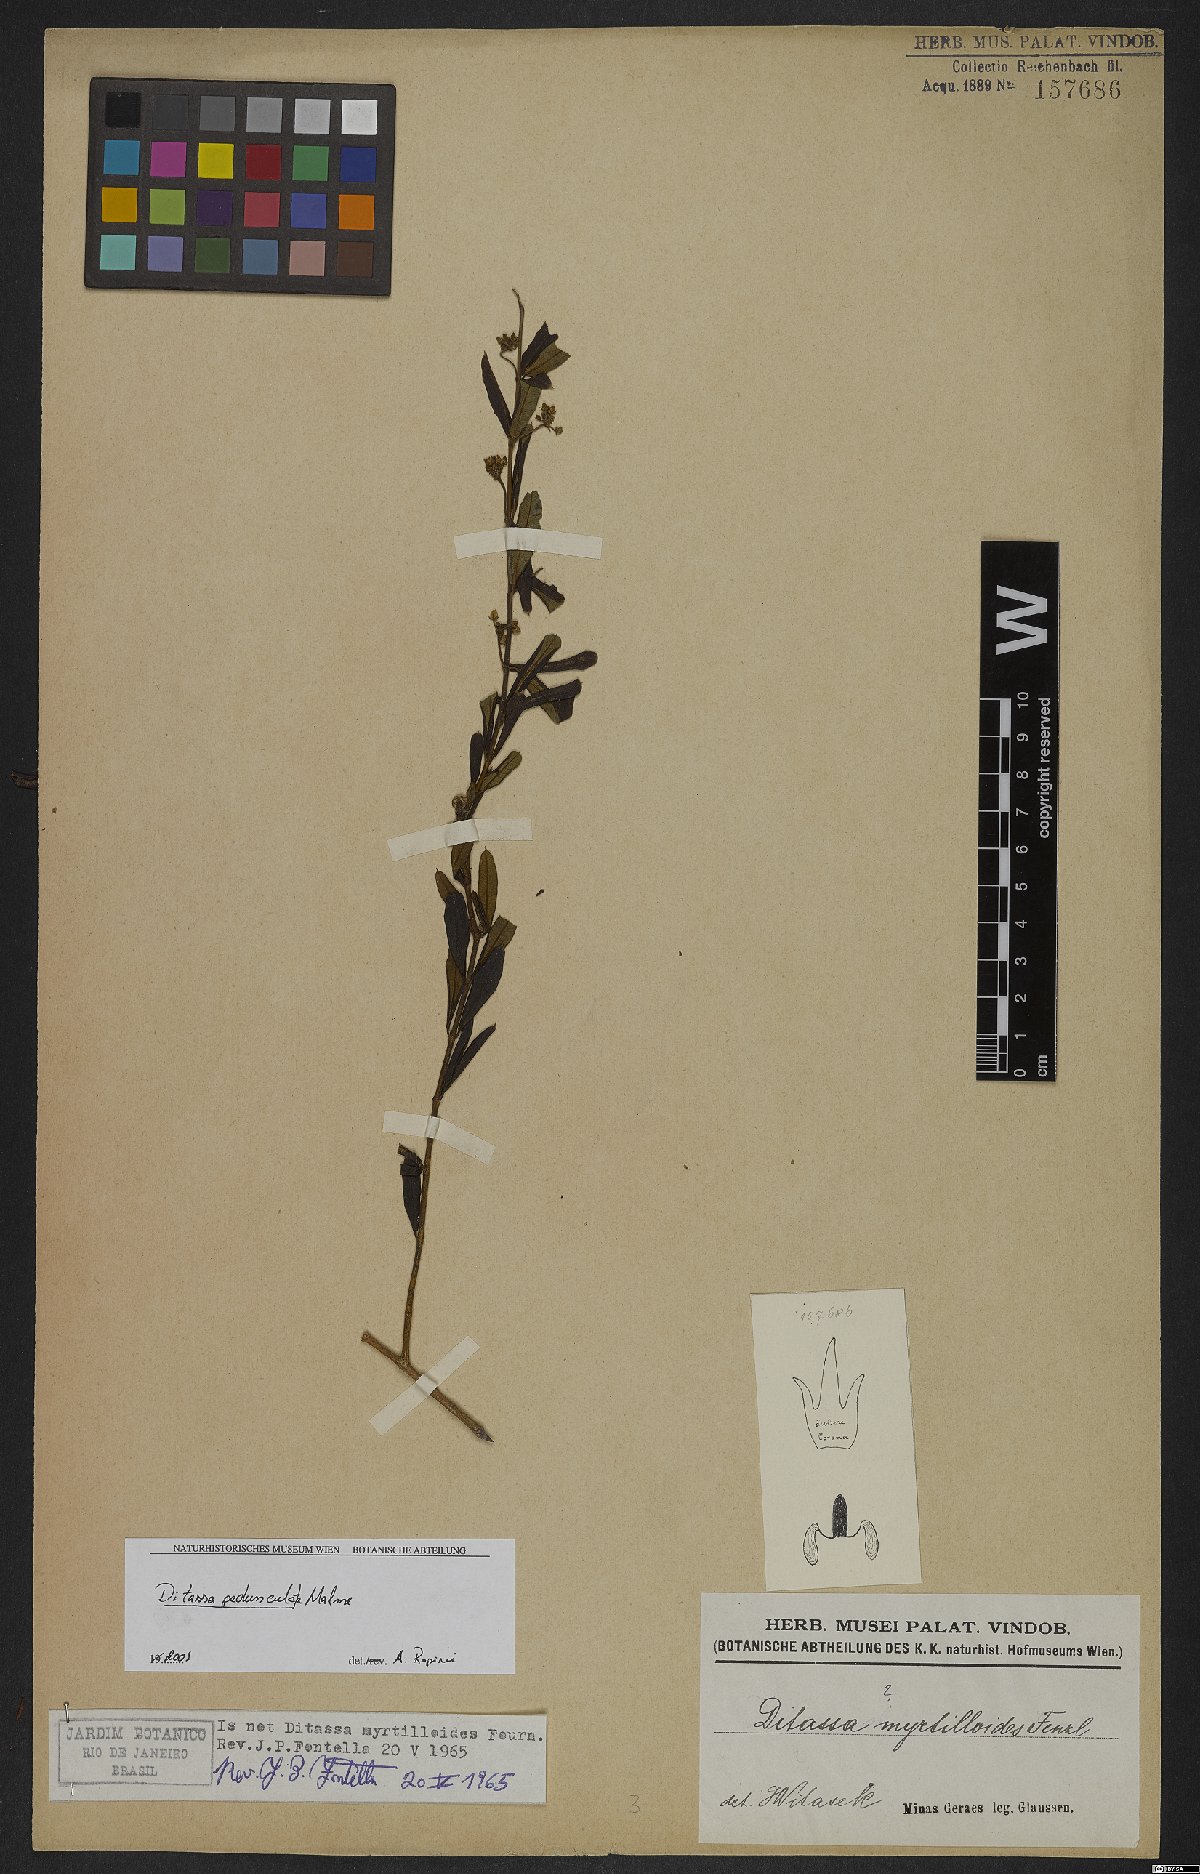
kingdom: Plantae
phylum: Tracheophyta
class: Magnoliopsida
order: Gentianales
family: Apocynaceae
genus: Ditassa
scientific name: Ditassa pedunculata
